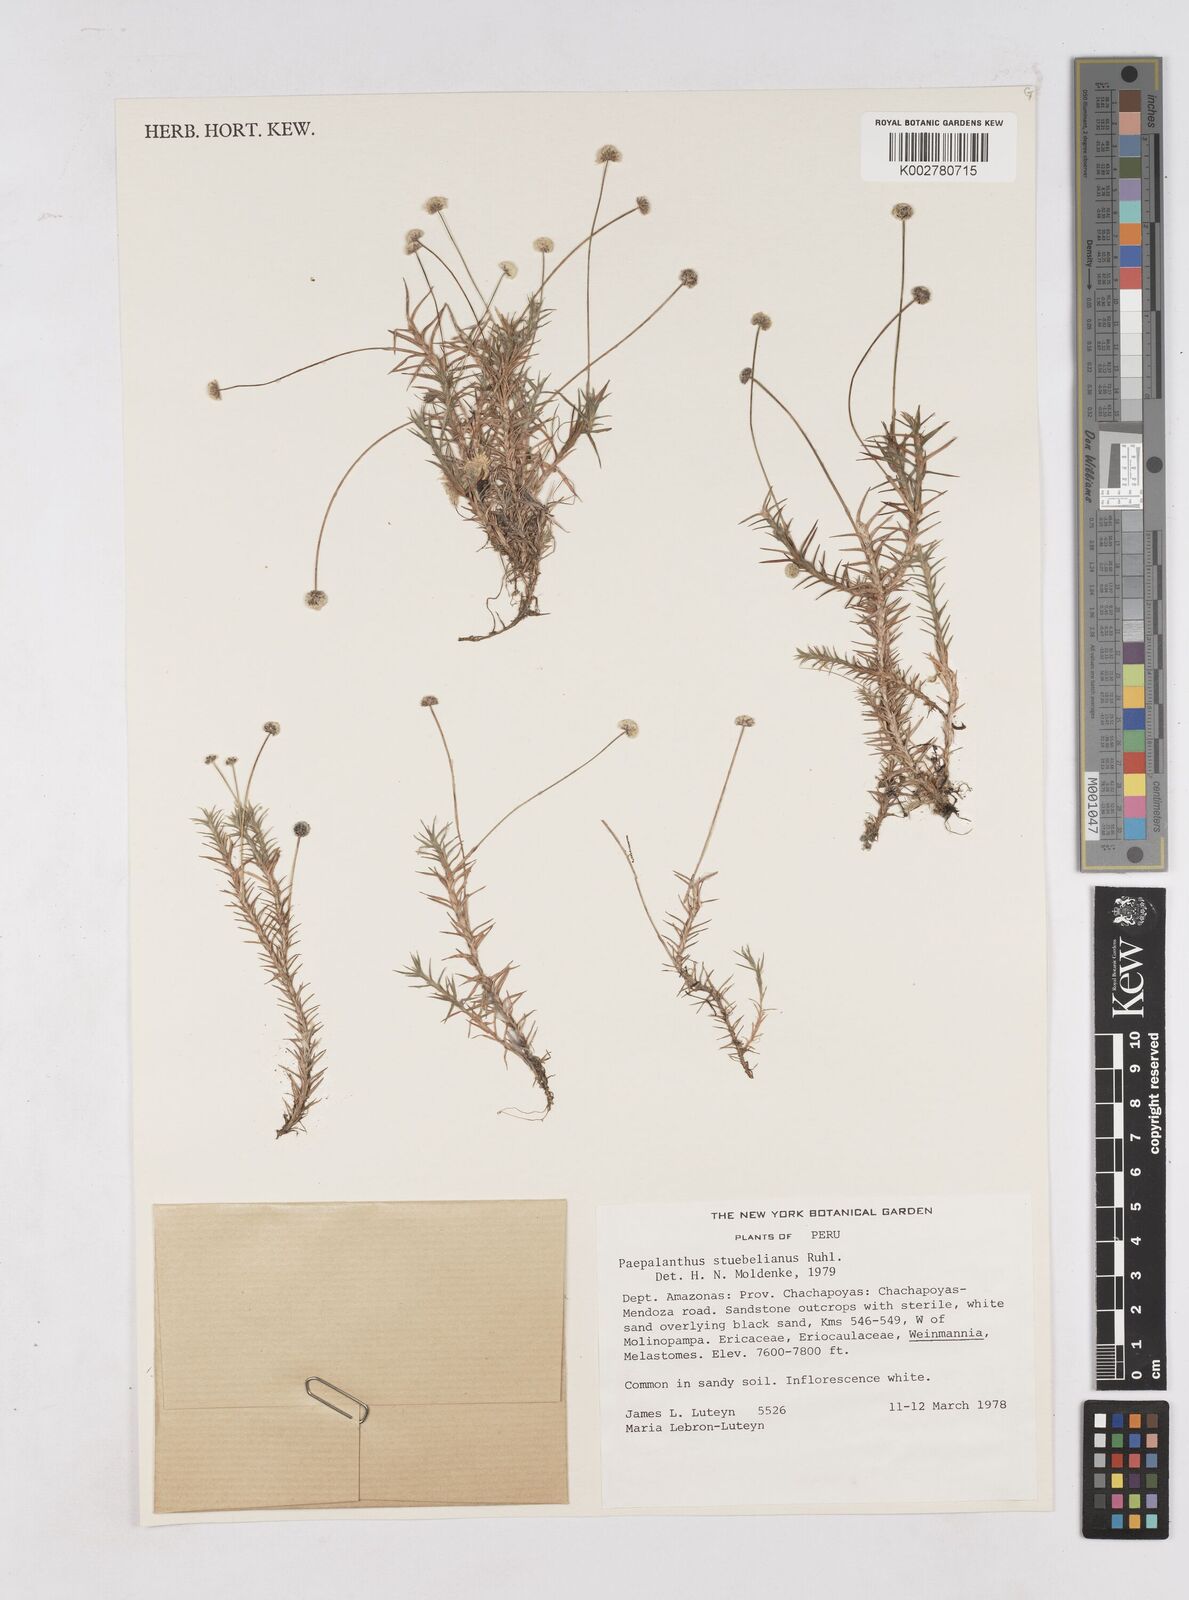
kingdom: Plantae
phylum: Tracheophyta
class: Liliopsida
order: Poales
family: Eriocaulaceae
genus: Paepalanthus
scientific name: Paepalanthus intermedius
